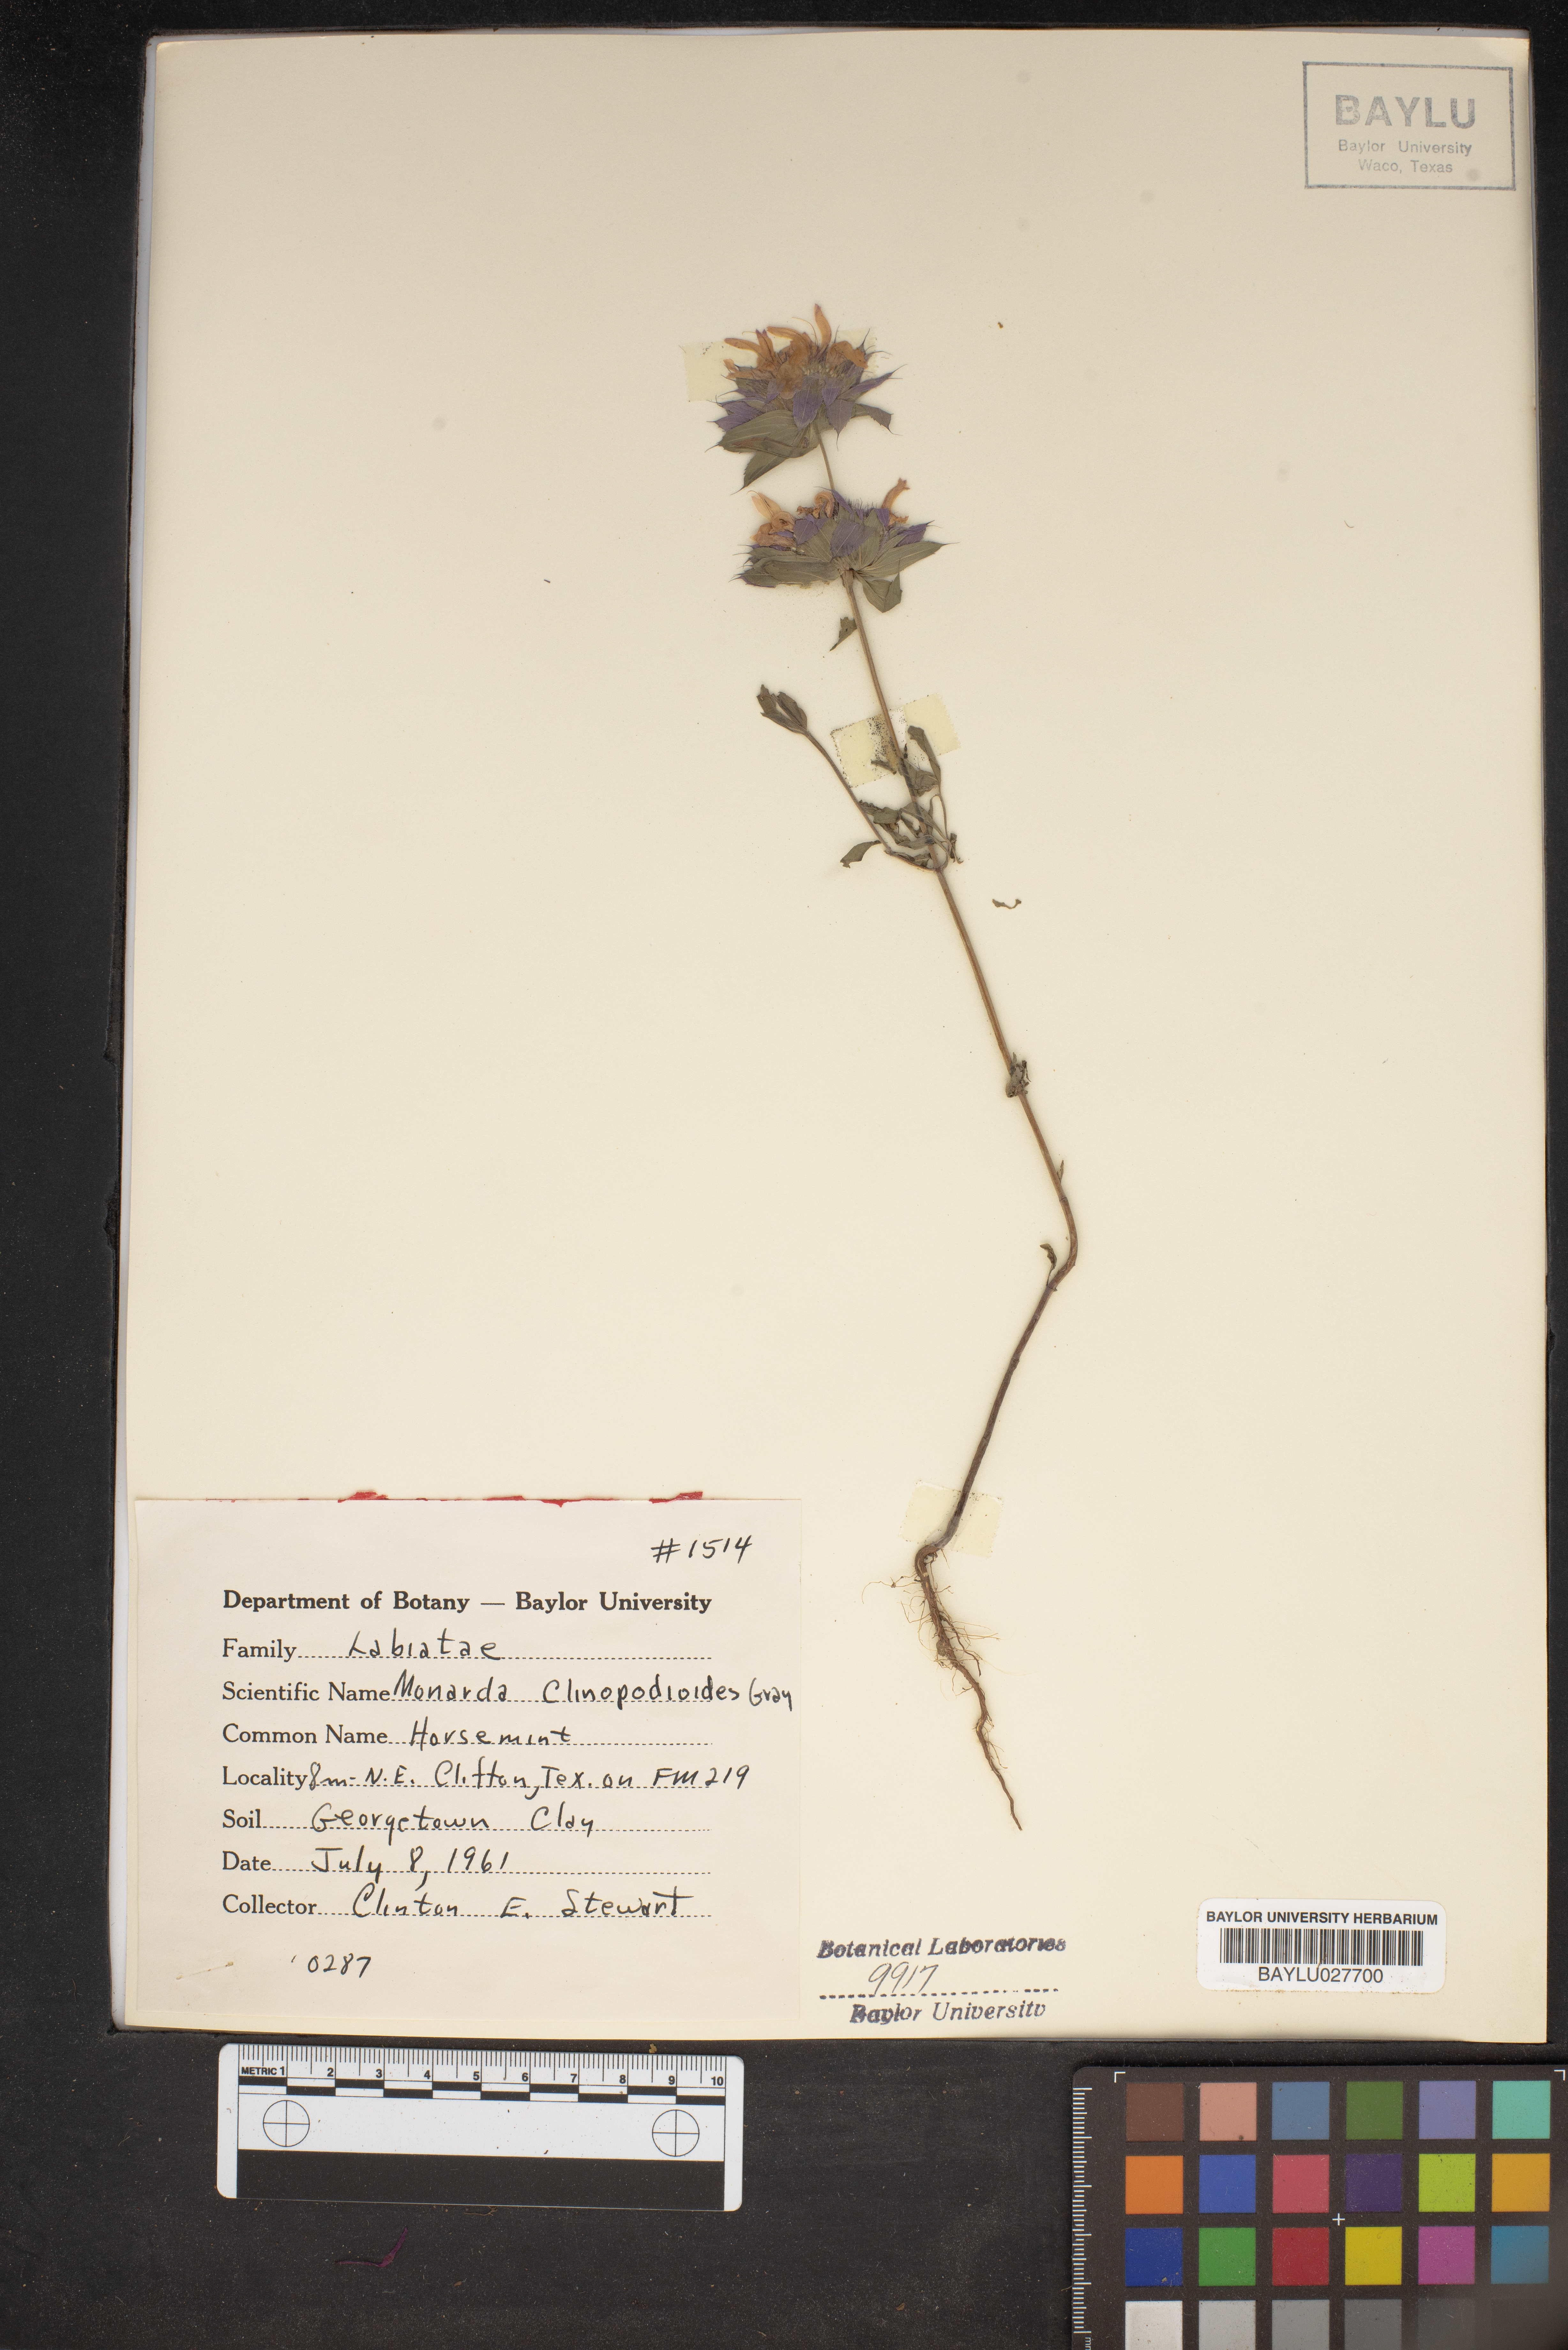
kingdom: Plantae
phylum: Tracheophyta
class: Magnoliopsida
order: Lamiales
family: Lamiaceae
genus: Monarda
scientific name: Monarda clinopodia
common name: Basil beebalm
